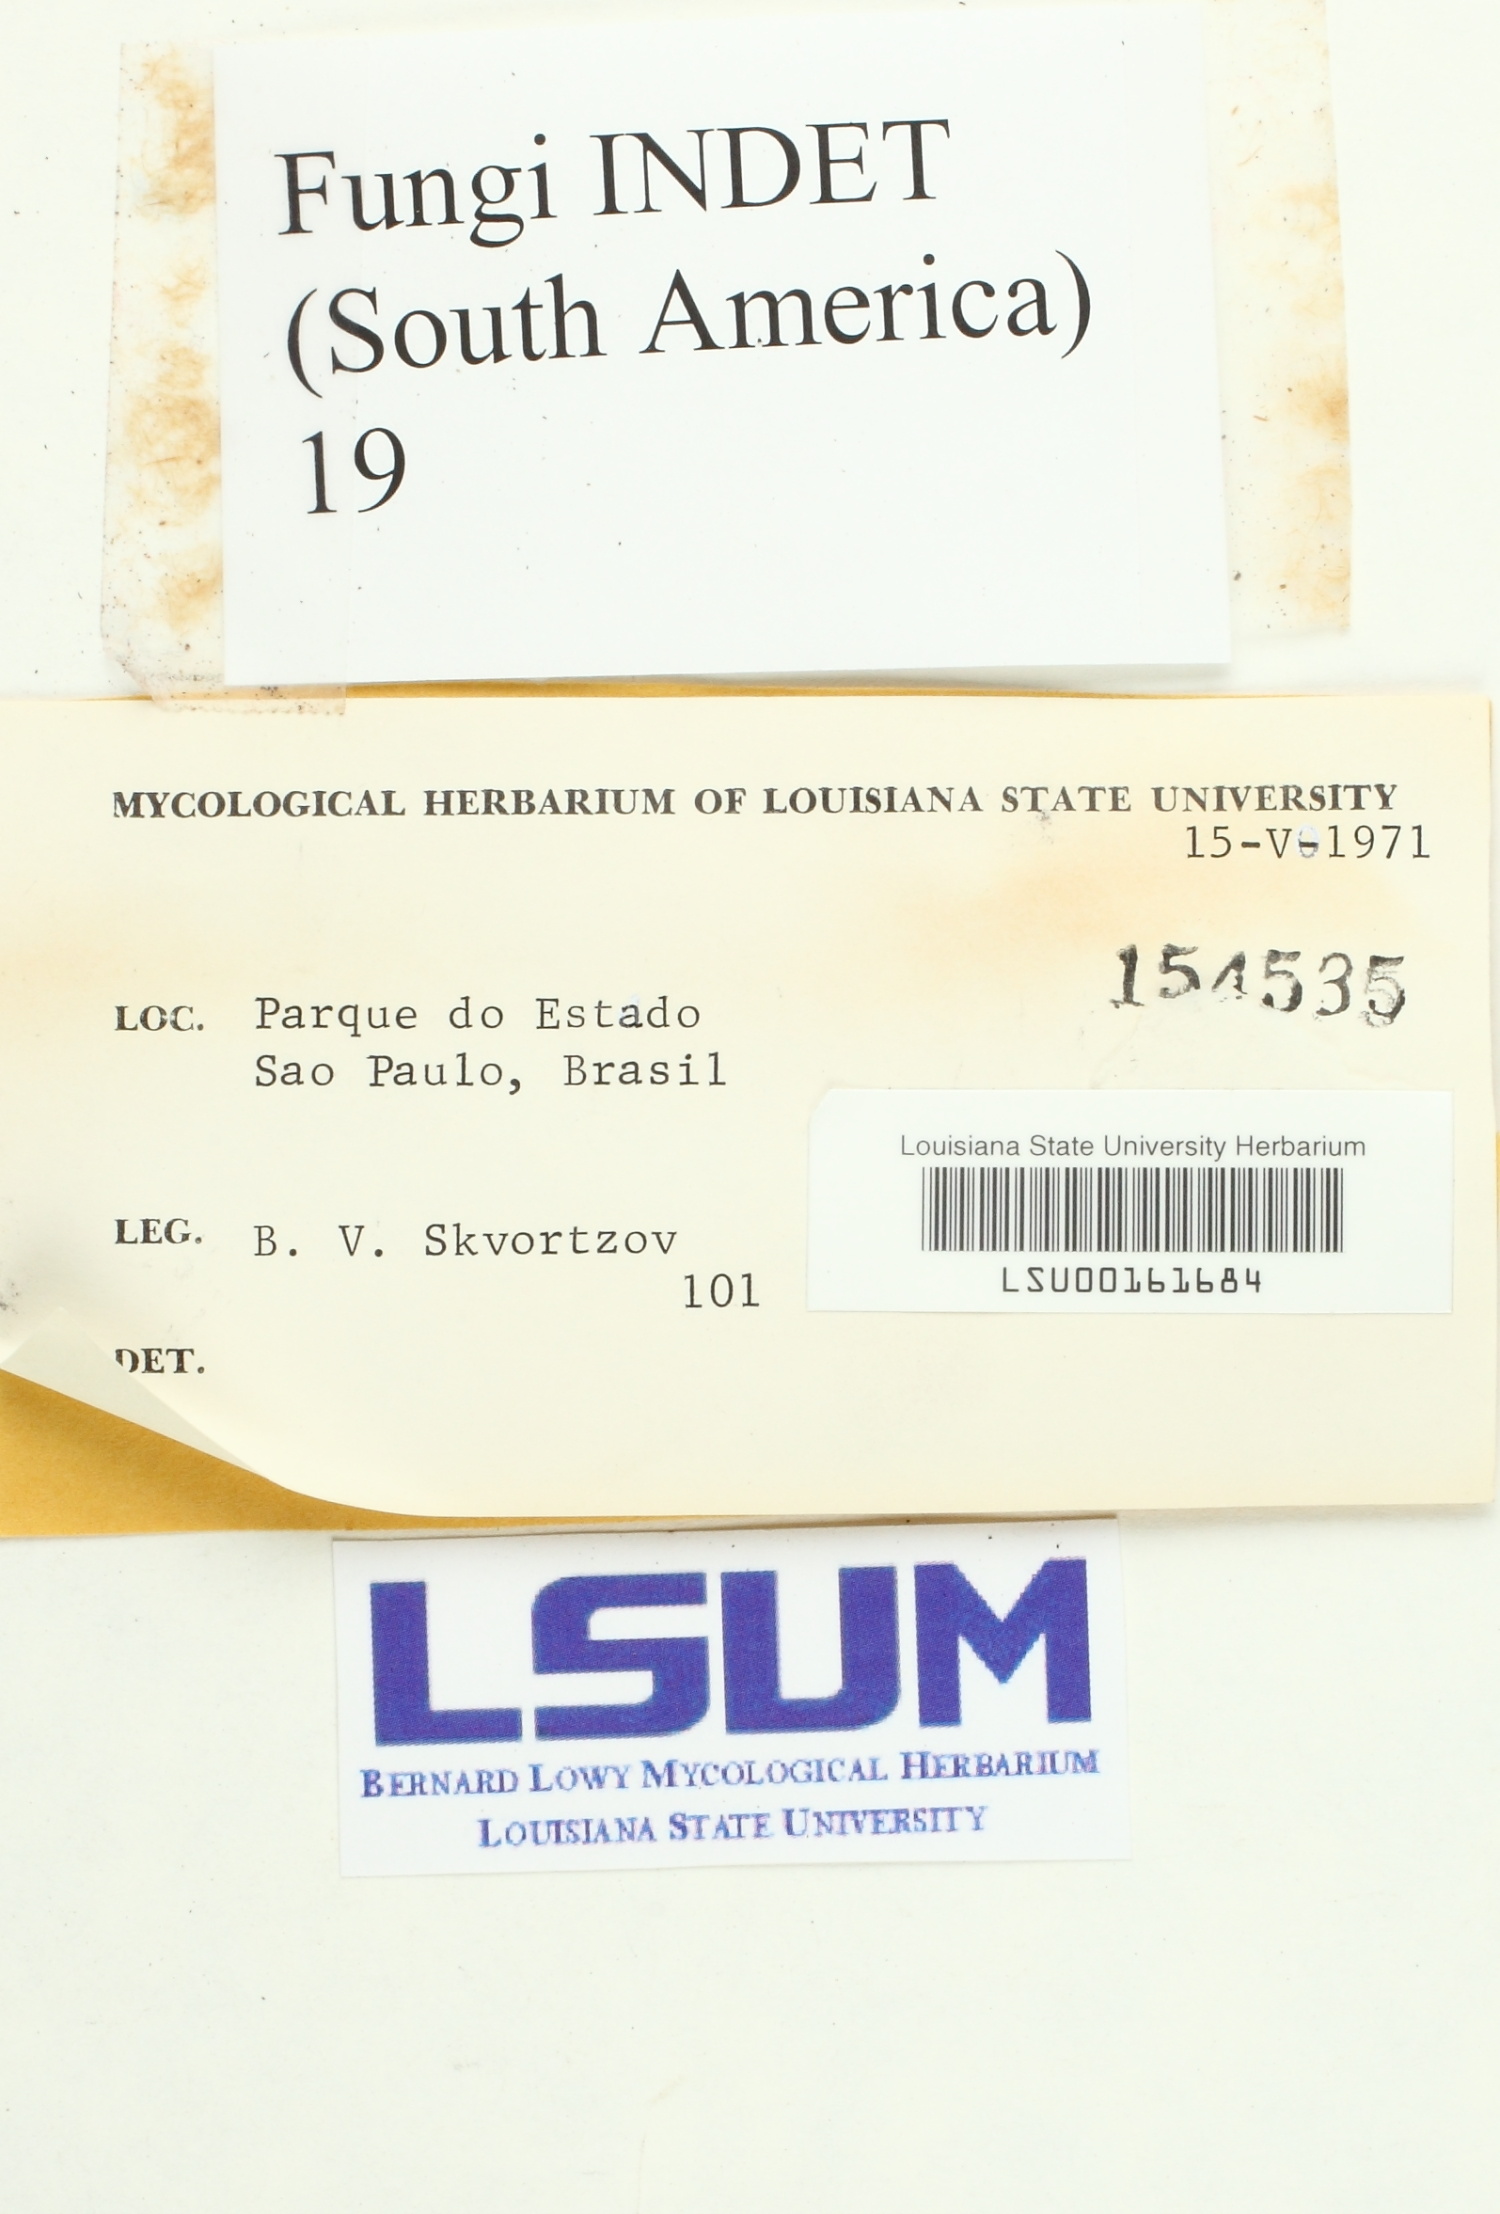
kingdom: Fungi
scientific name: Fungi
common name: Fungi
